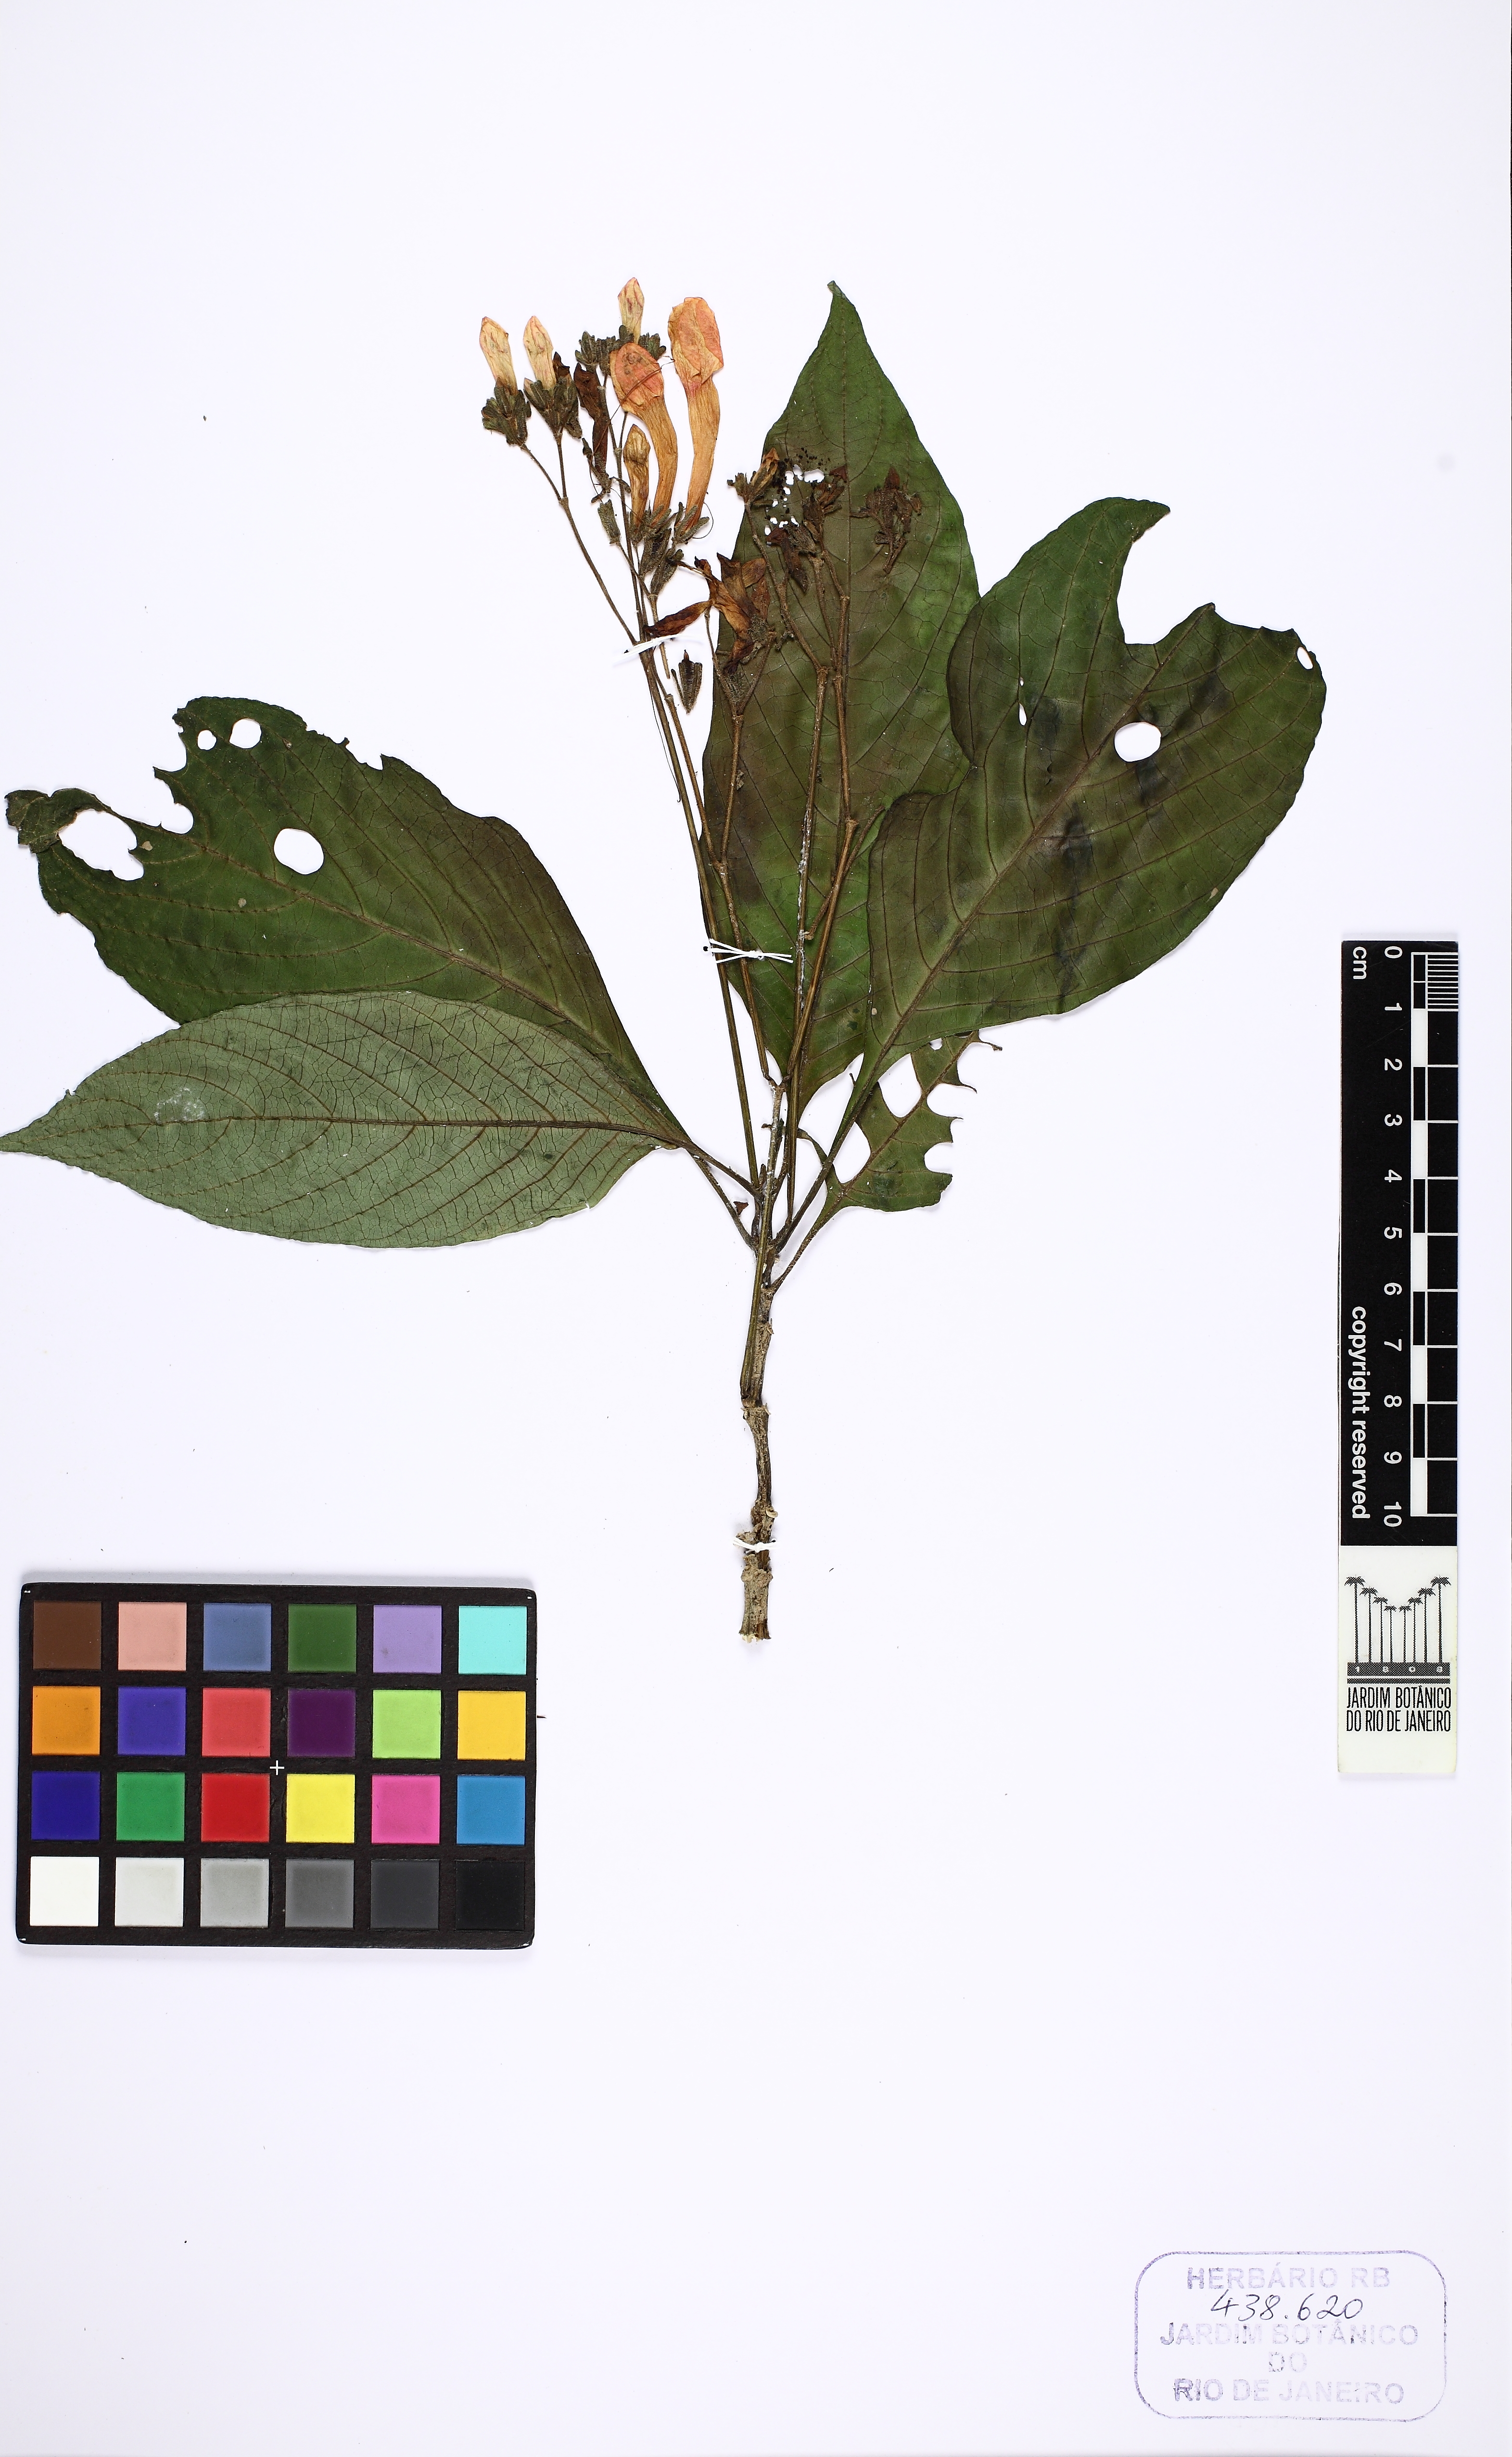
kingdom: Plantae
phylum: Tracheophyta
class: Magnoliopsida
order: Lamiales
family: Acanthaceae
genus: Ruellia
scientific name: Ruellia sceptrum-marianum
